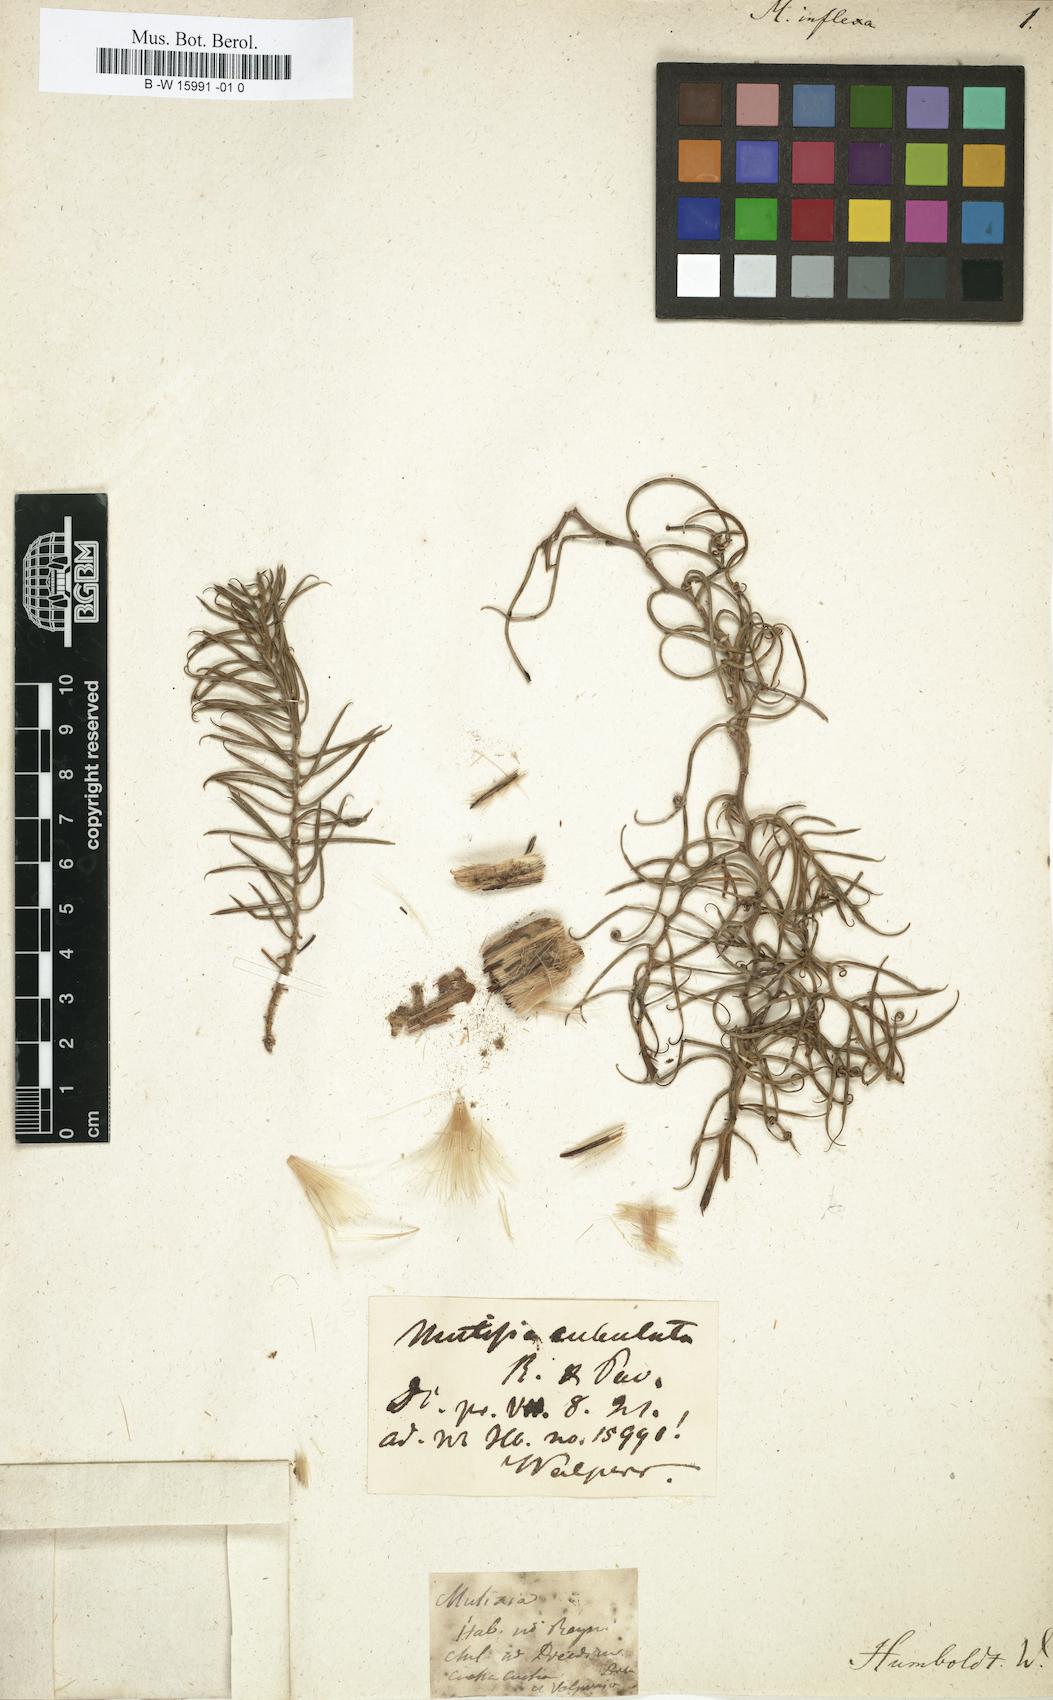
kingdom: Plantae
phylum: Tracheophyta
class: Magnoliopsida
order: Asterales
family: Asteraceae
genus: Mutisia
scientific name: Mutisia subulata
